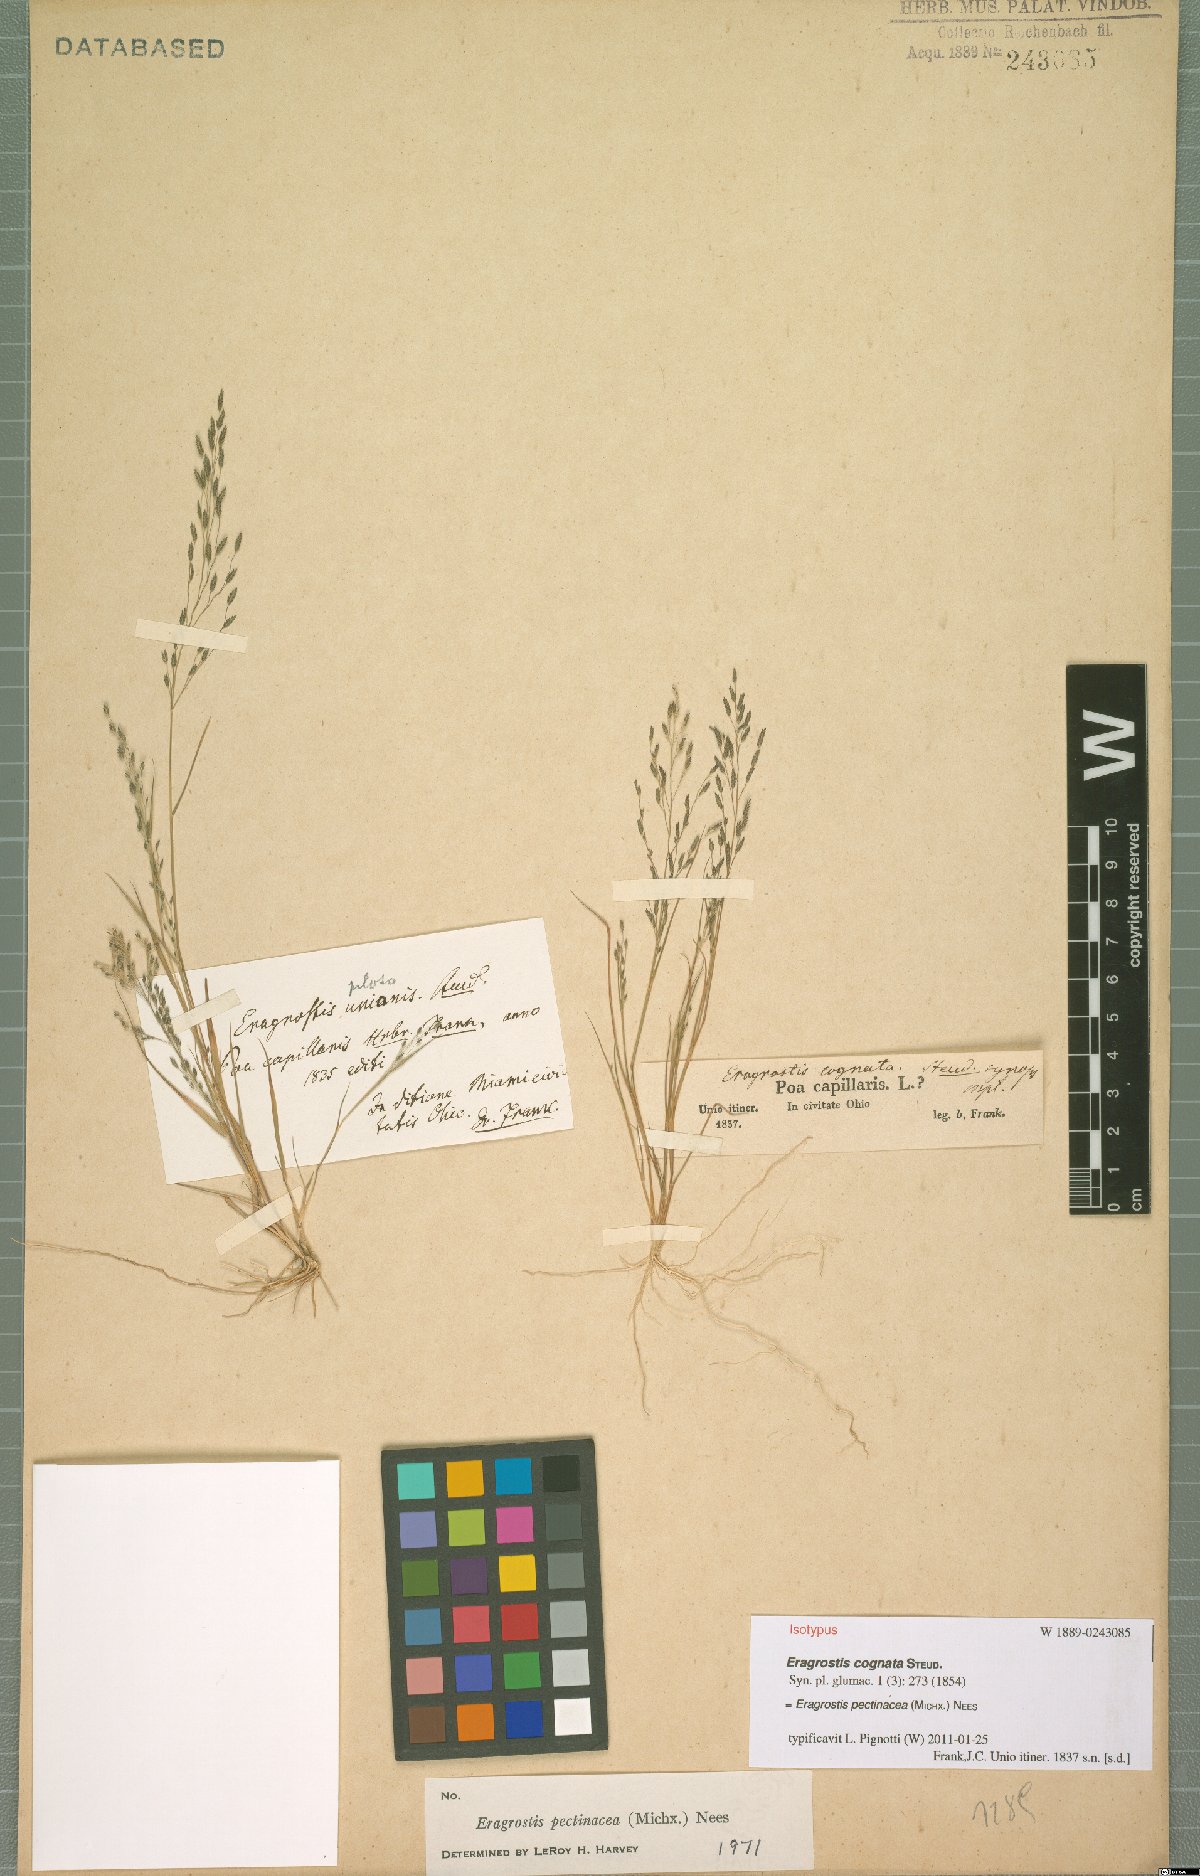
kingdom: Plantae
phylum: Tracheophyta
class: Liliopsida
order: Poales
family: Poaceae
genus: Eragrostis
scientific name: Eragrostis pectinacea
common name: Tufted lovegrass
